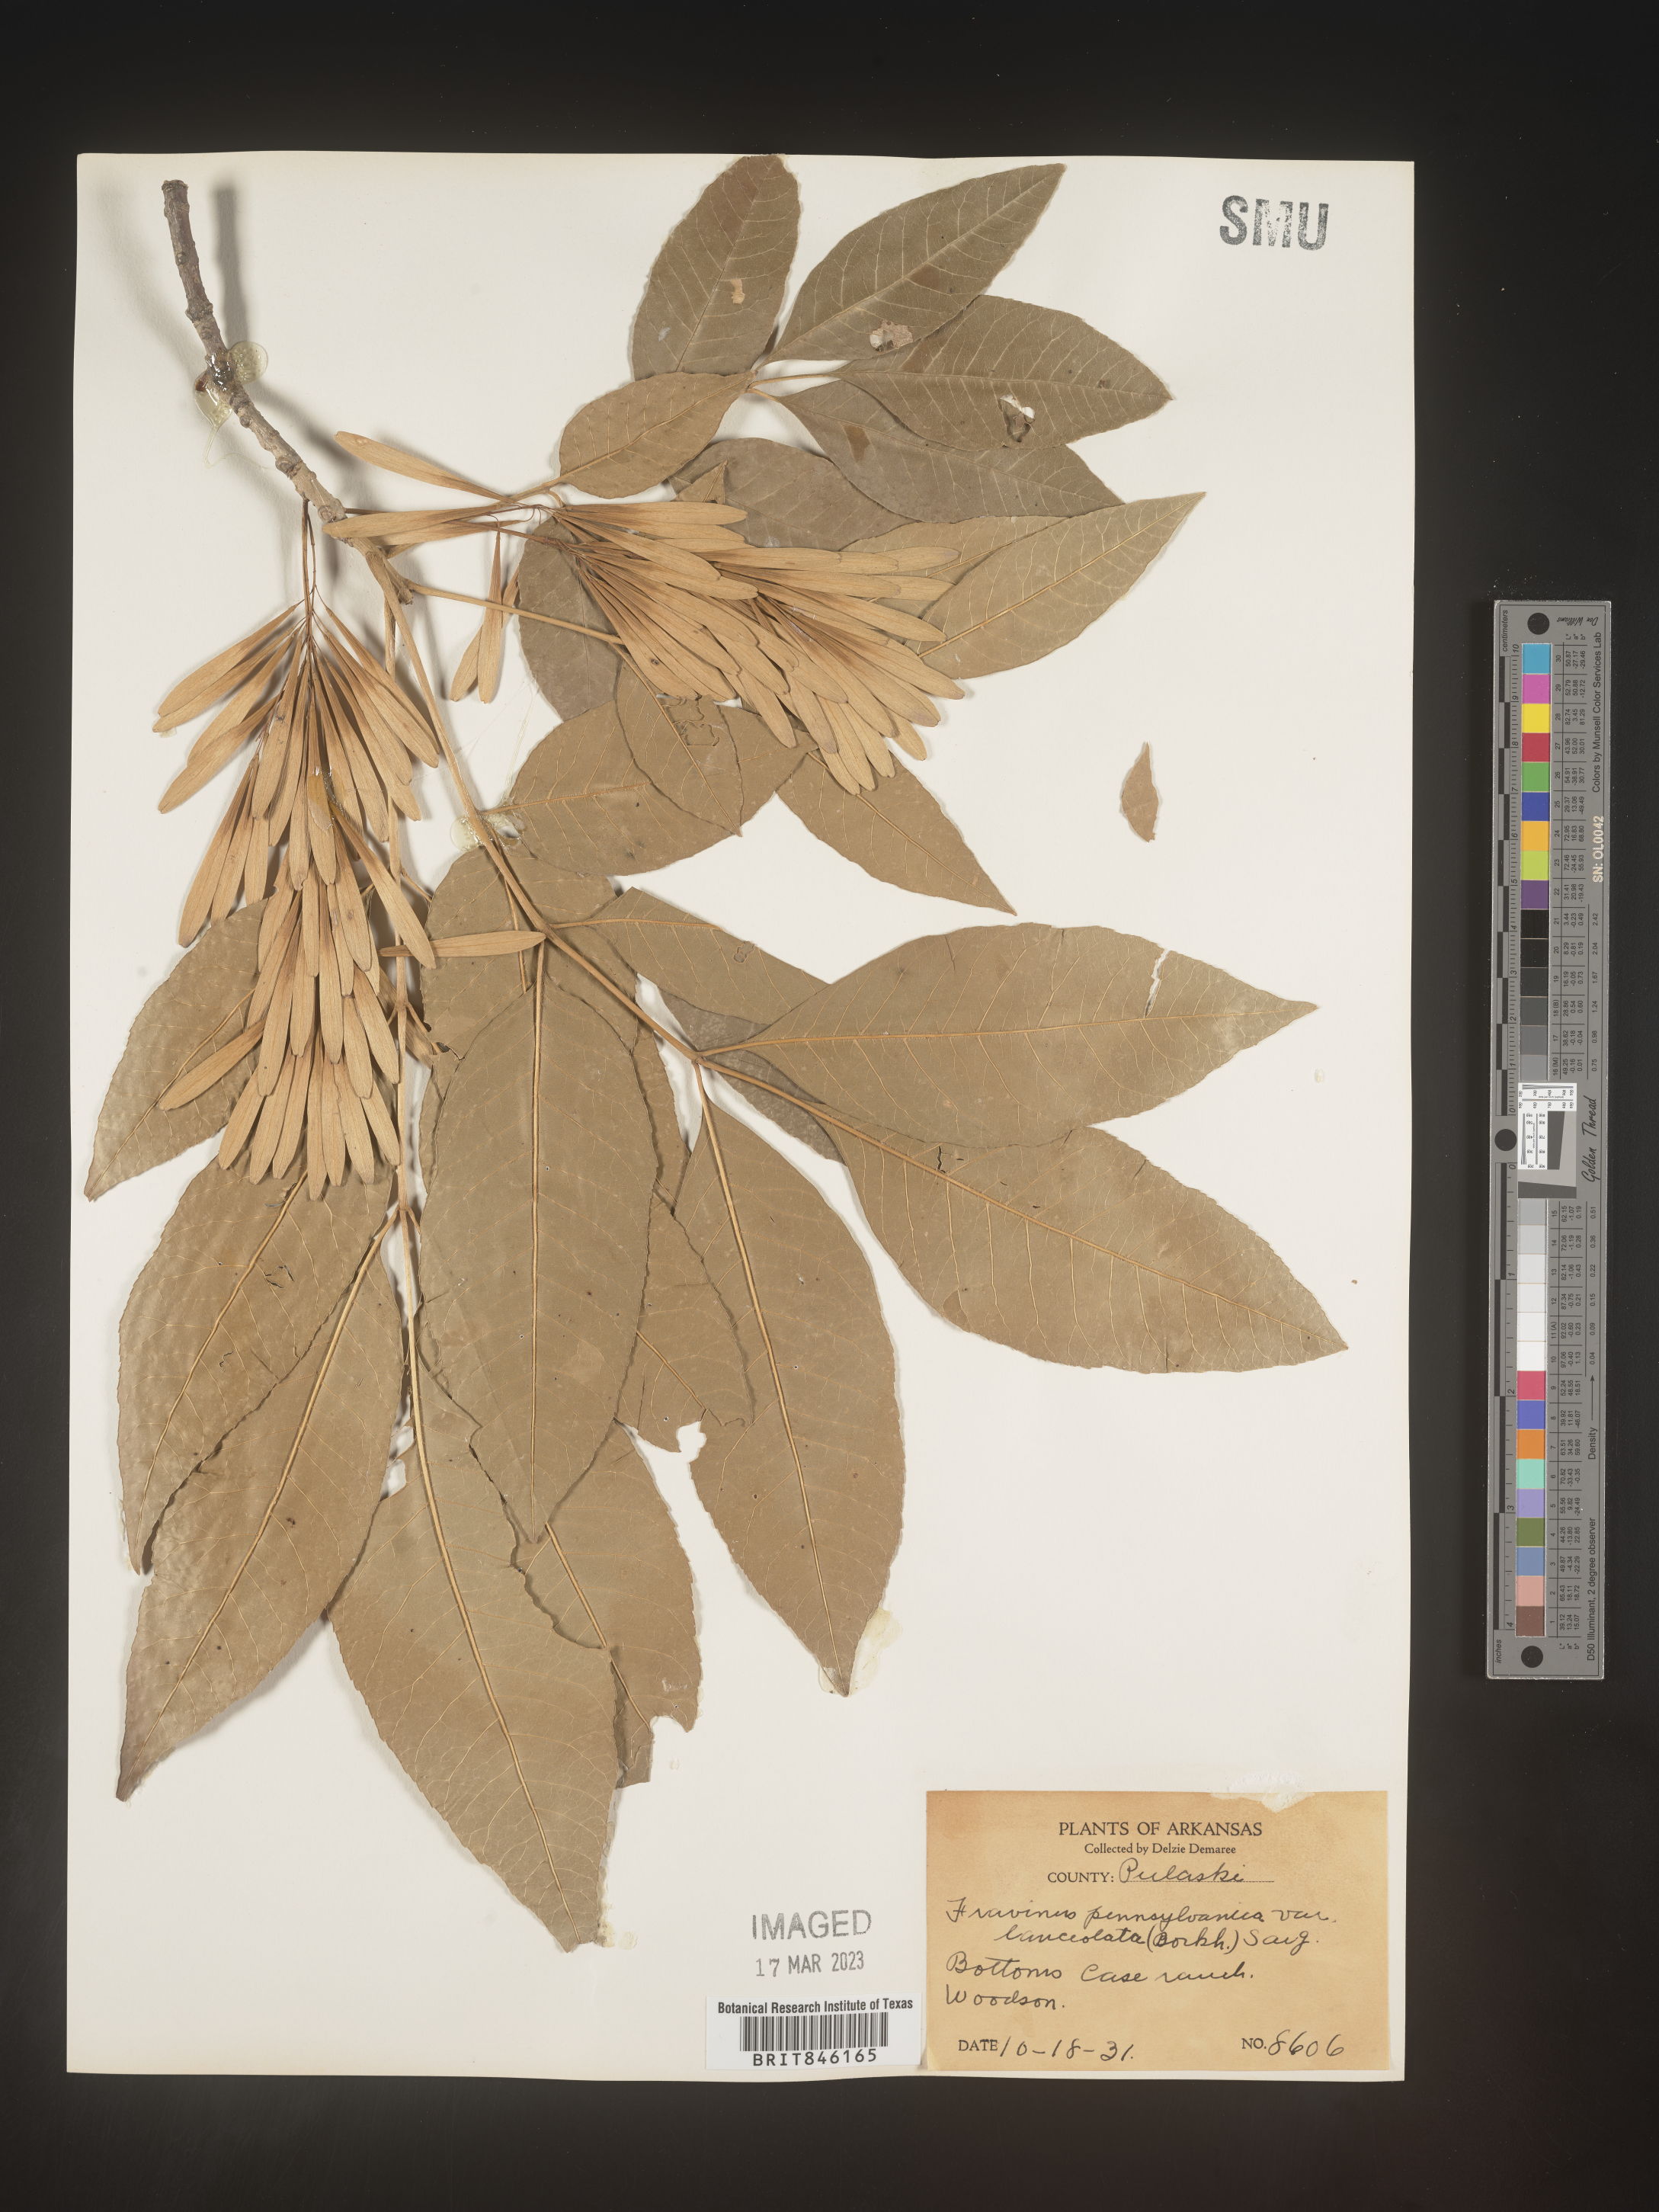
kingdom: Plantae
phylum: Tracheophyta
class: Magnoliopsida
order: Lamiales
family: Oleaceae
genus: Fraxinus
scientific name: Fraxinus pennsylvanica
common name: Green ash
